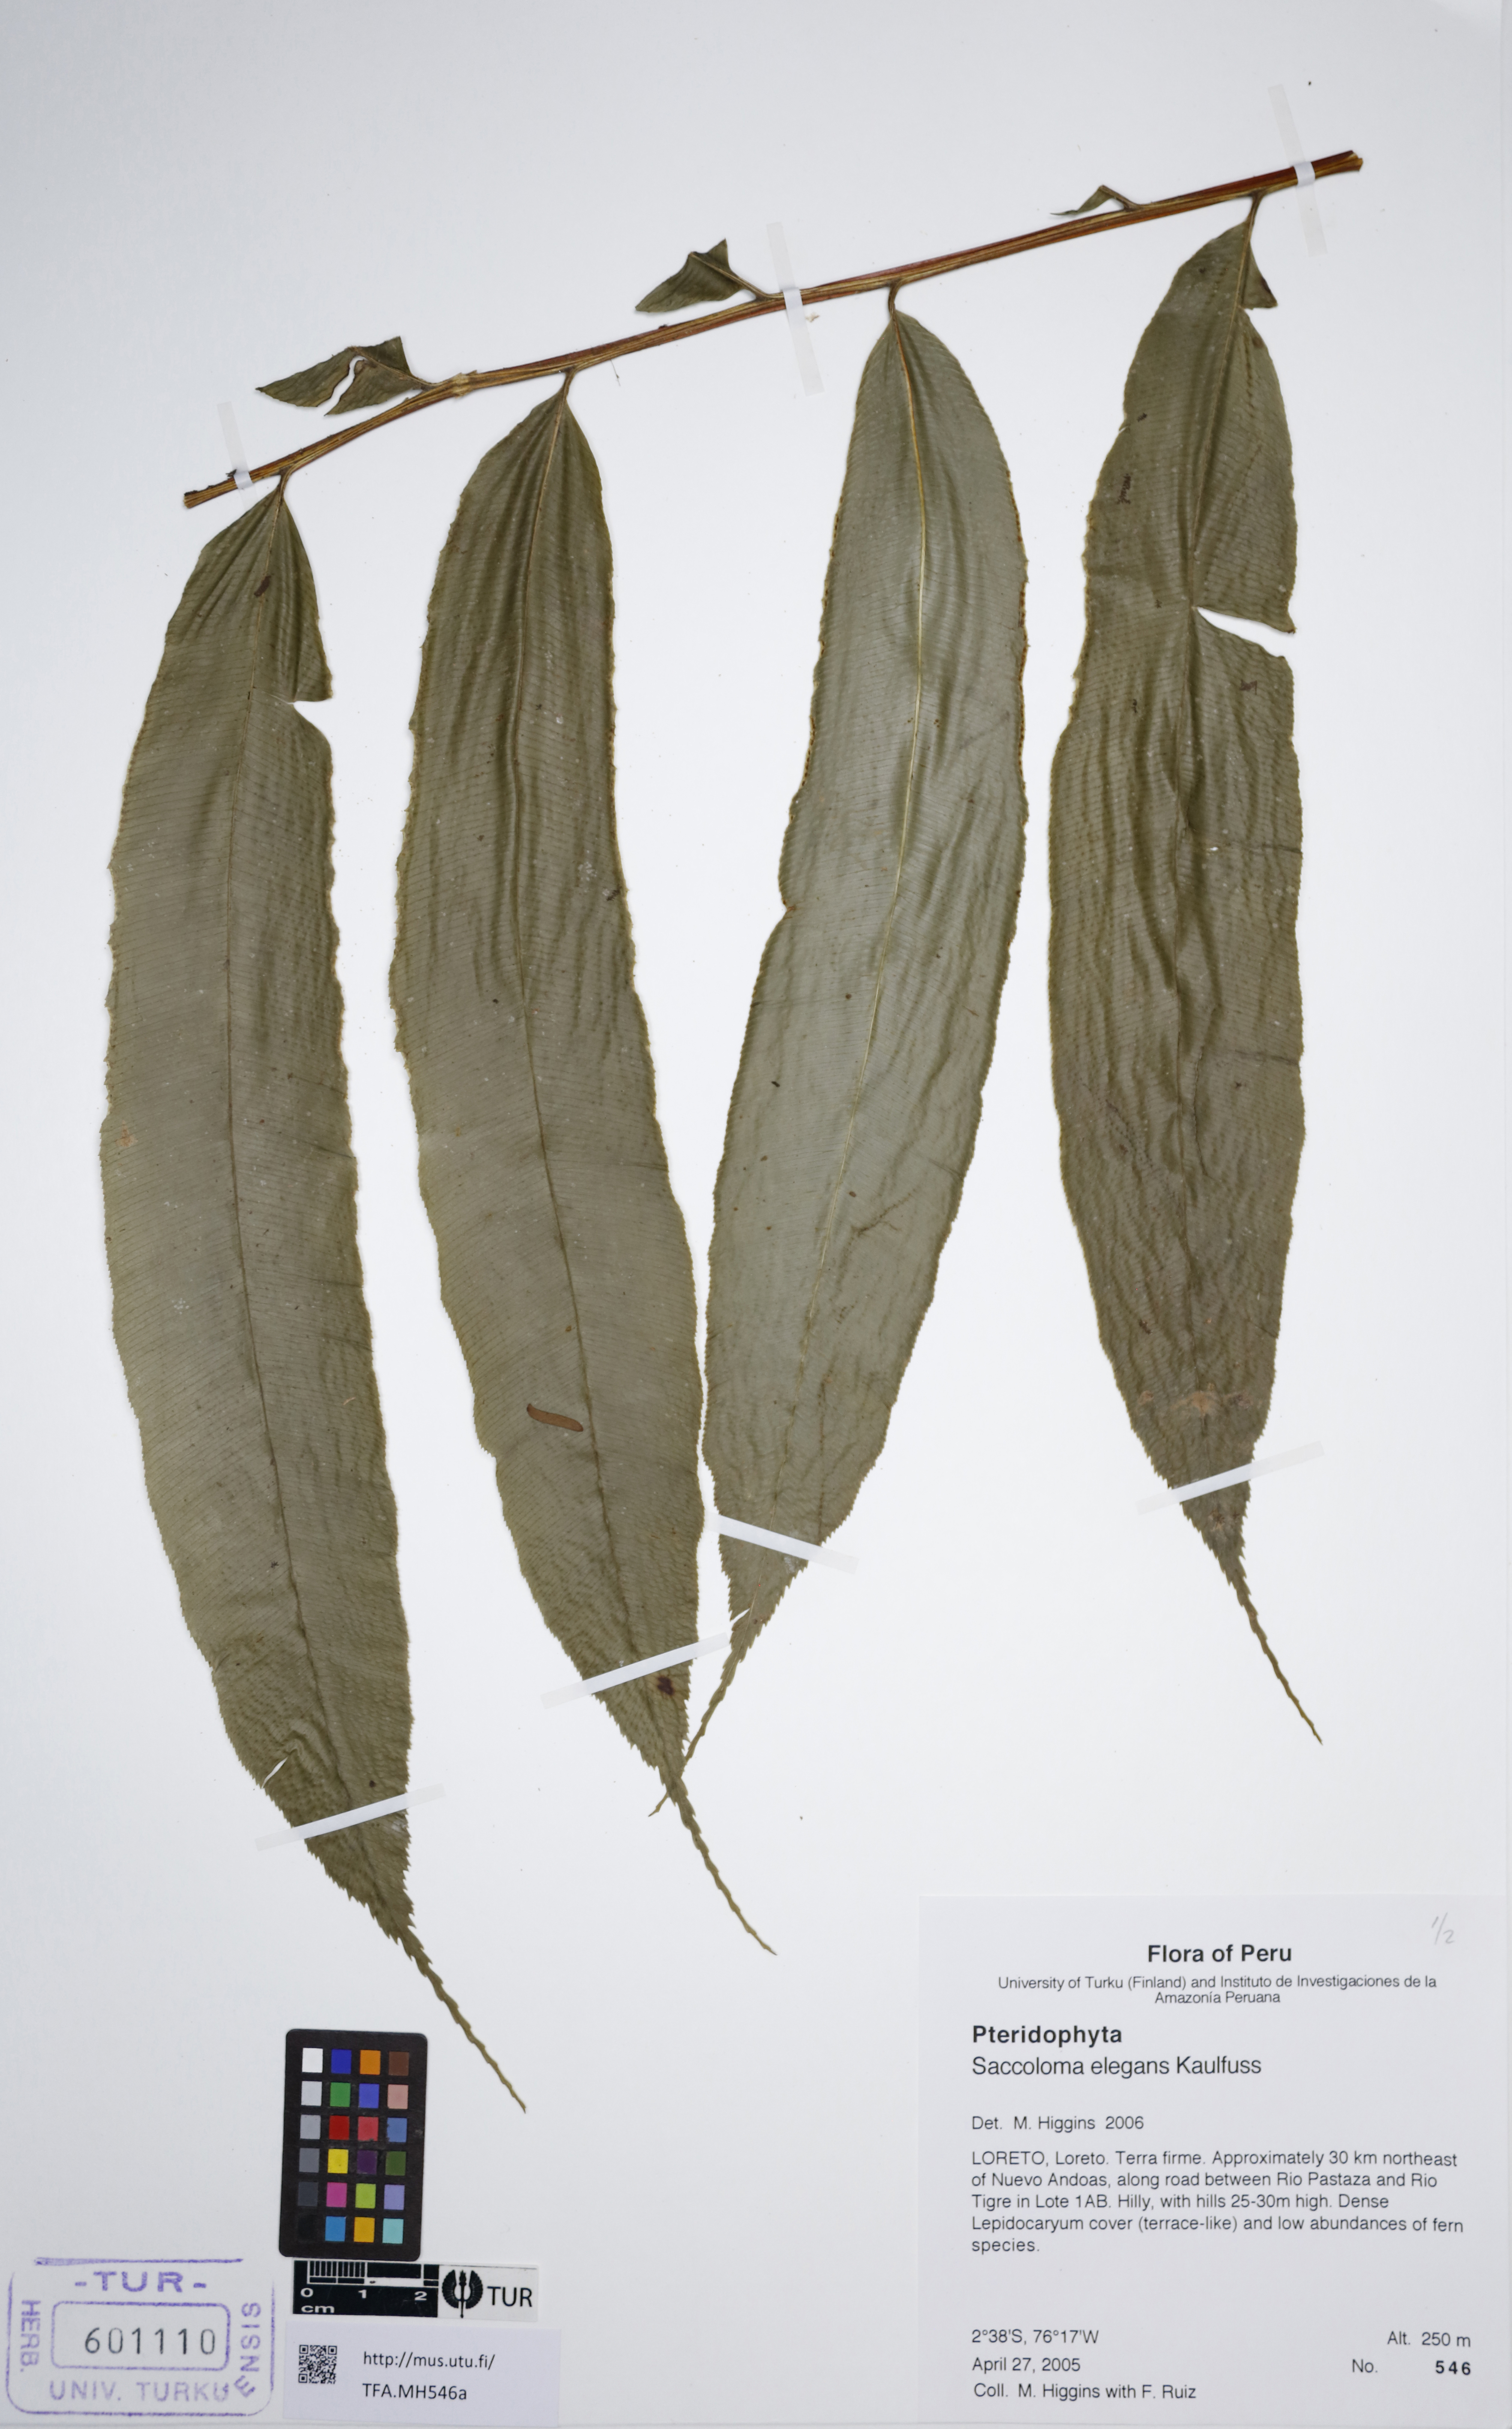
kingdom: Plantae
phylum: Tracheophyta
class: Polypodiopsida
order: Polypodiales
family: Saccolomataceae
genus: Saccoloma
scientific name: Saccoloma elegans
